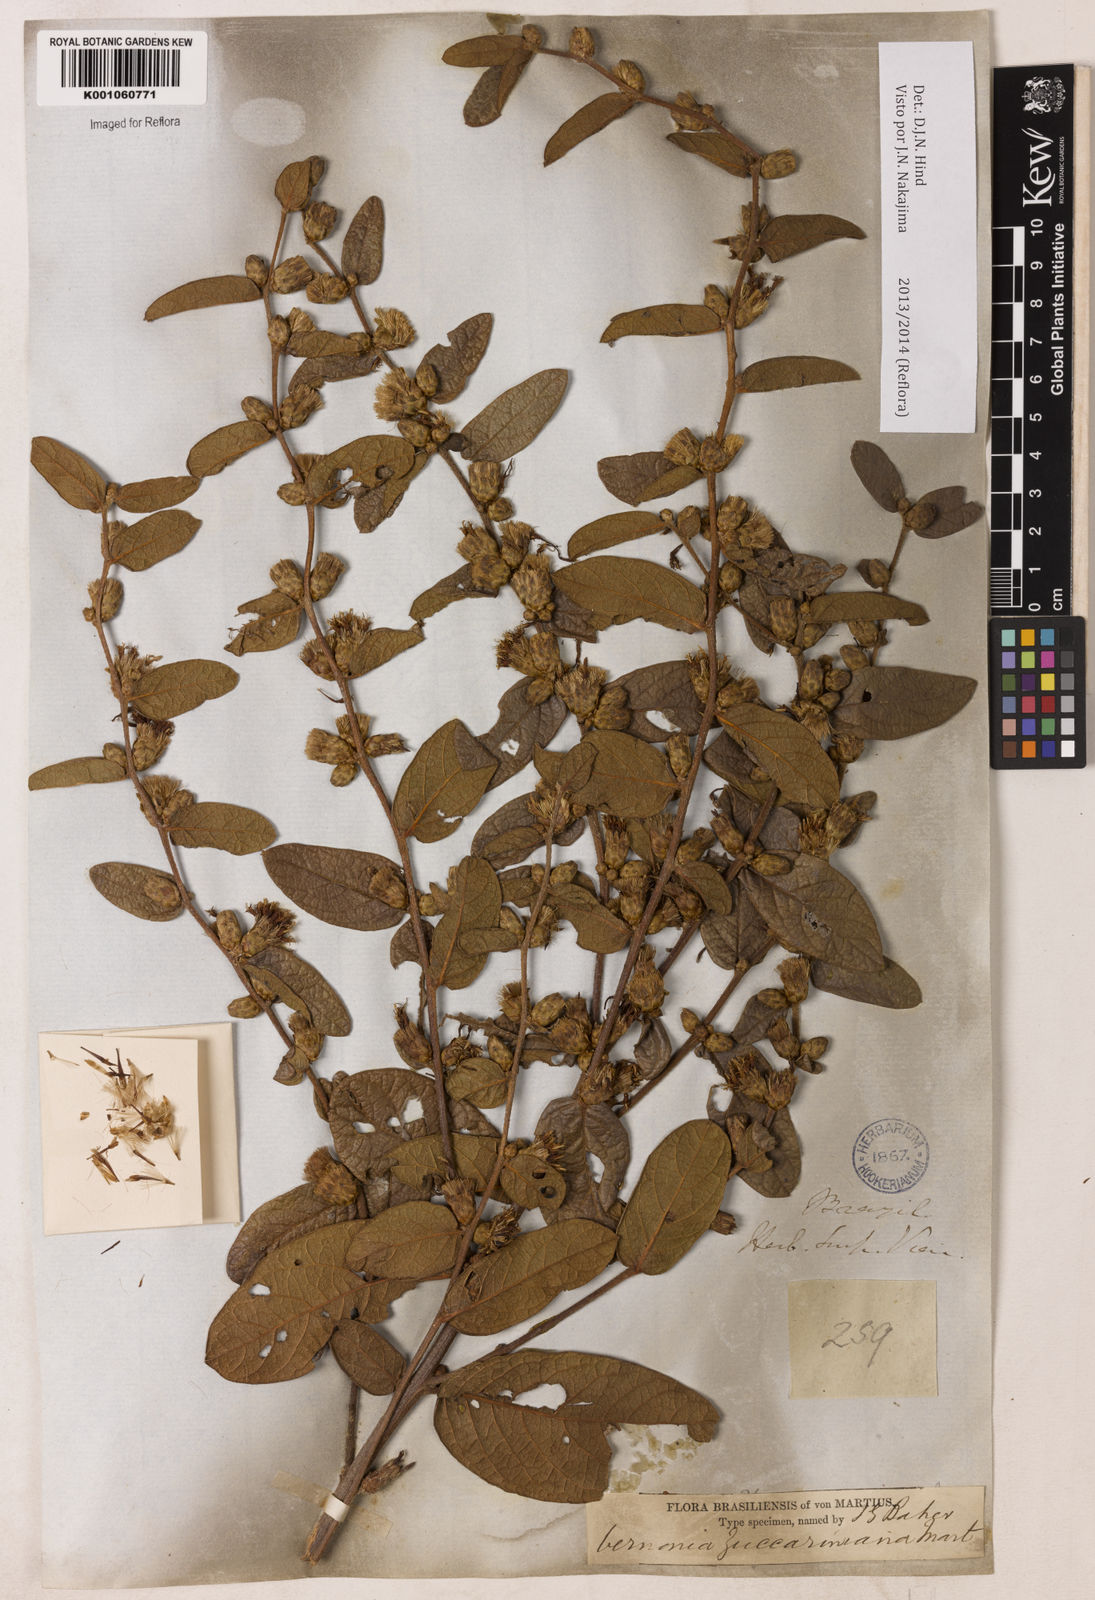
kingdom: Plantae
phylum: Tracheophyta
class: Magnoliopsida
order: Asterales
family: Asteraceae
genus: Lessingianthus
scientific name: Lessingianthus zuccarinianus
